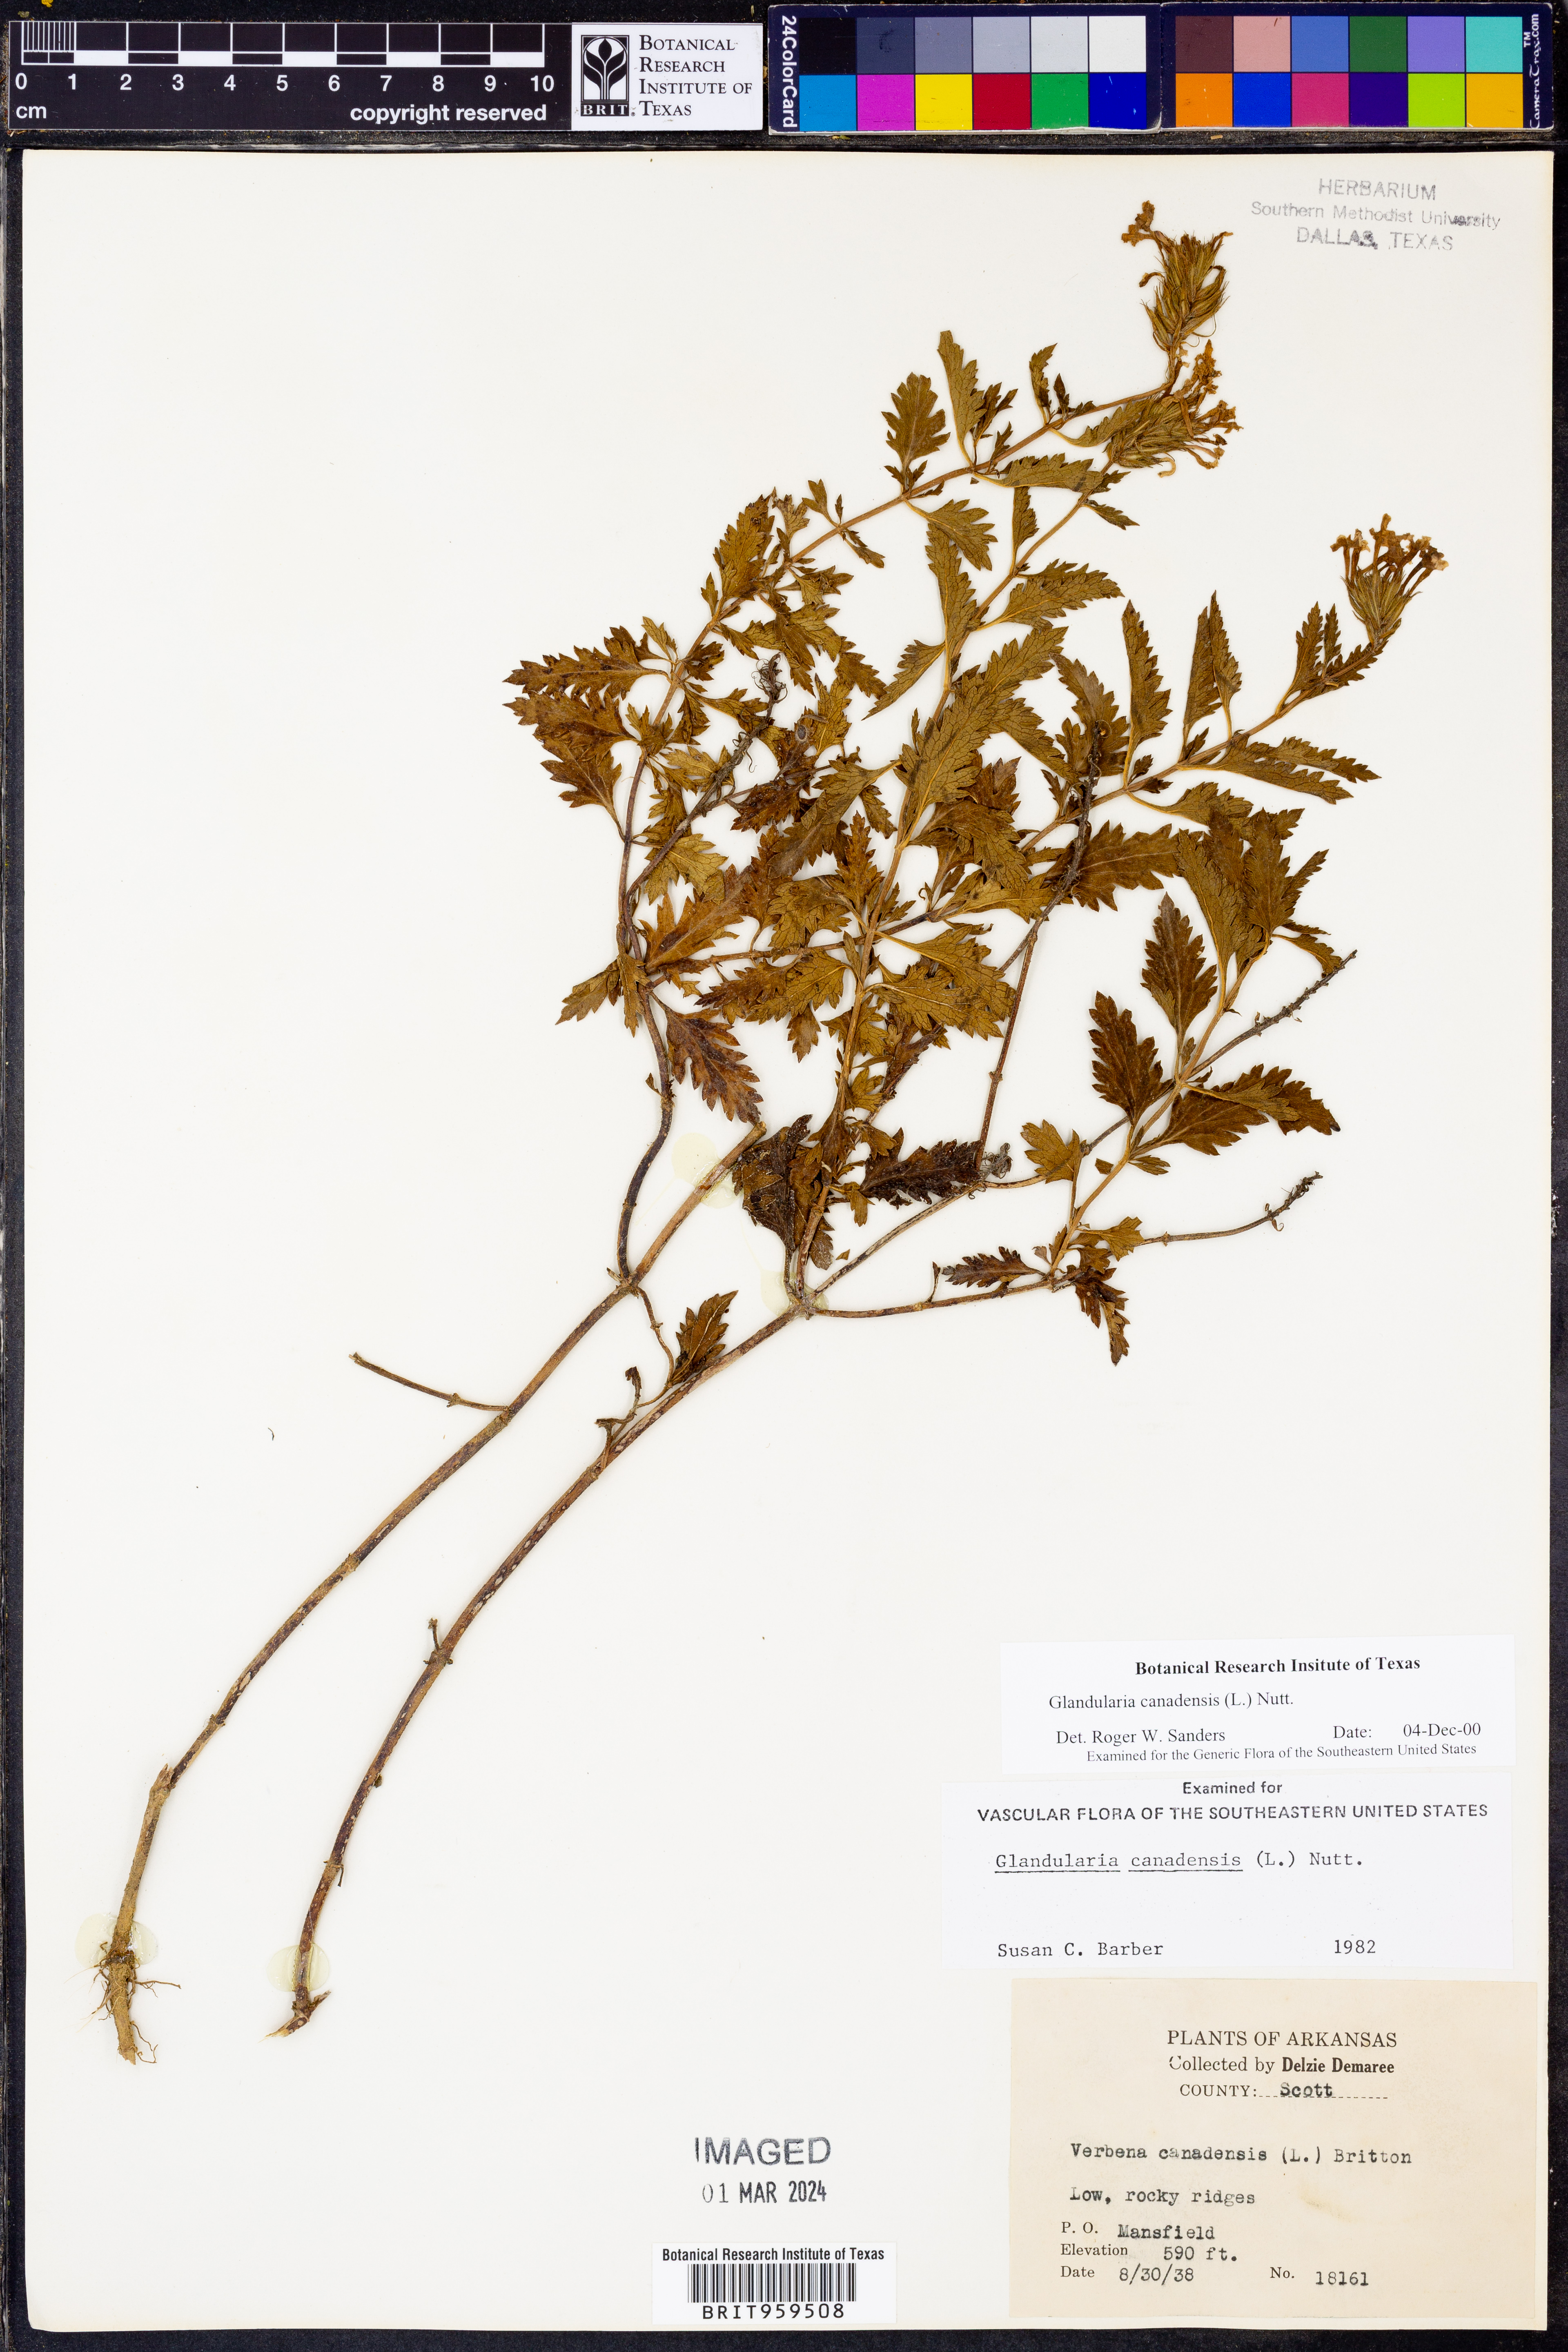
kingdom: Plantae
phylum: Tracheophyta
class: Magnoliopsida
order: Lamiales
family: Verbenaceae
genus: Verbena
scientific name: Verbena canadensis
